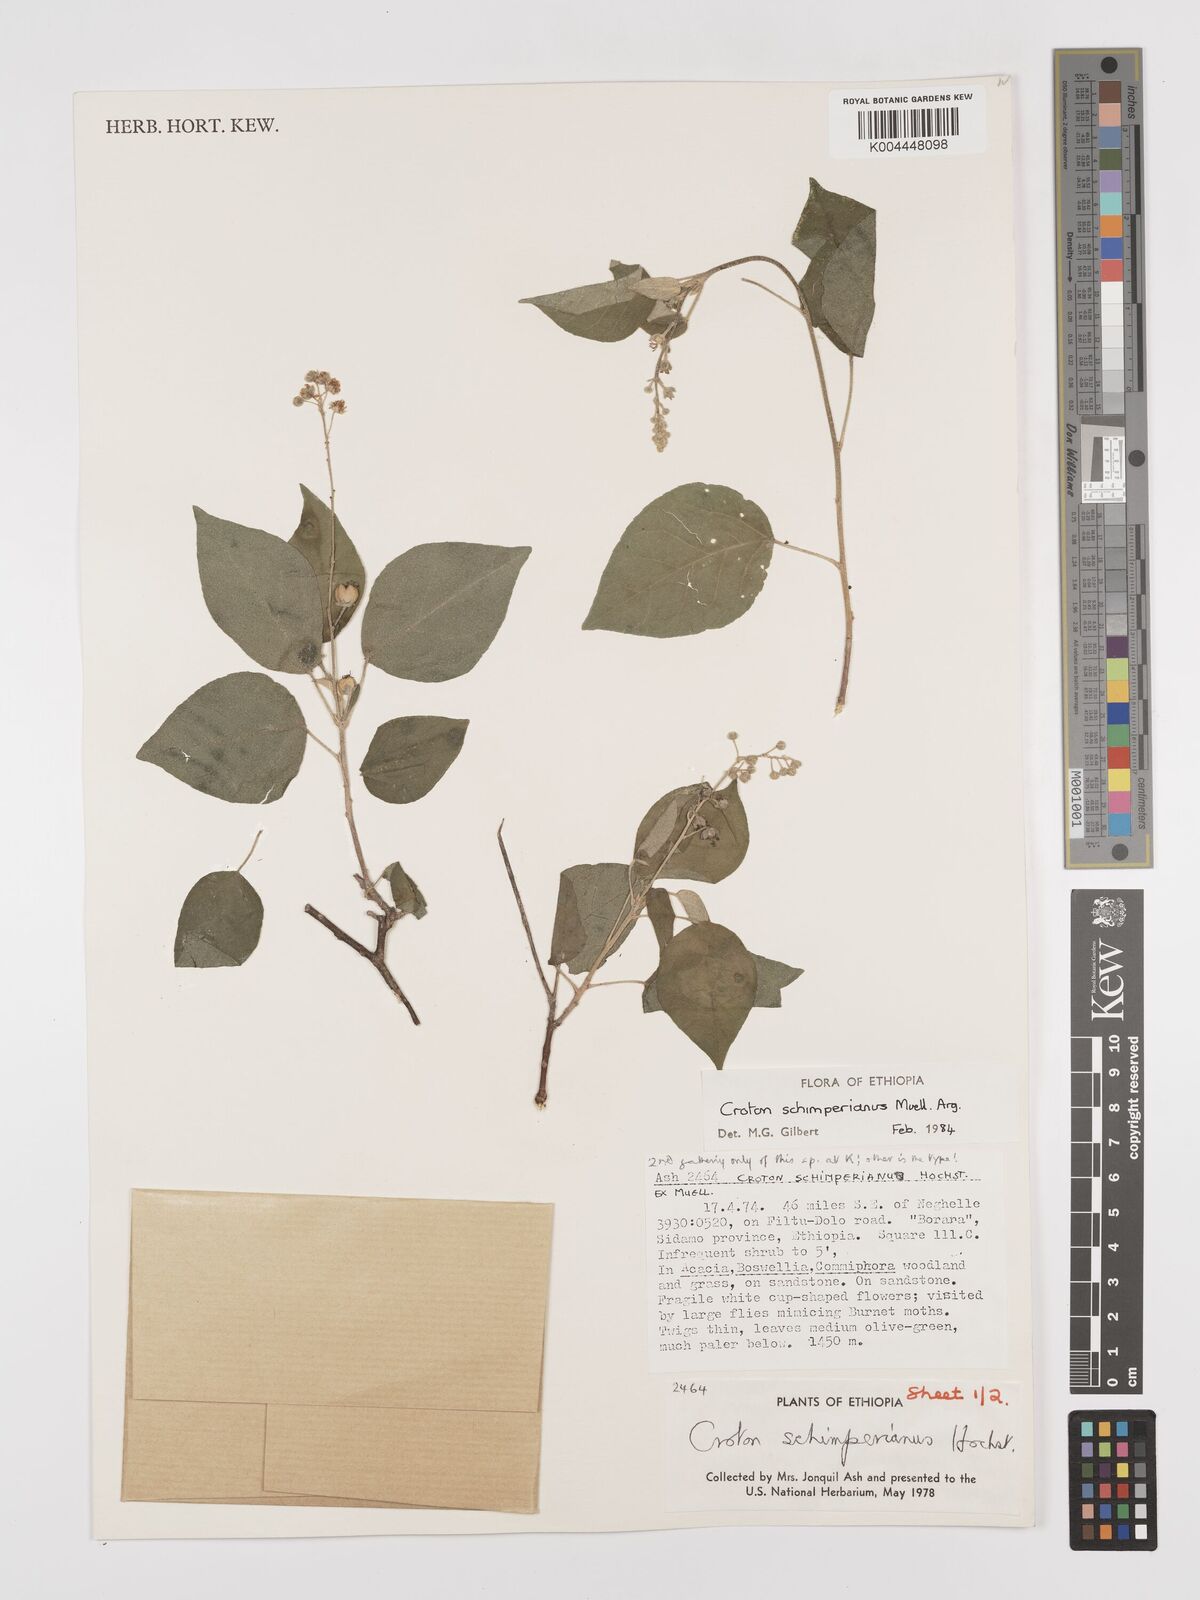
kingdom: Plantae
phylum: Tracheophyta
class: Magnoliopsida
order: Malpighiales
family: Euphorbiaceae
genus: Croton
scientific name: Croton schimperianus
